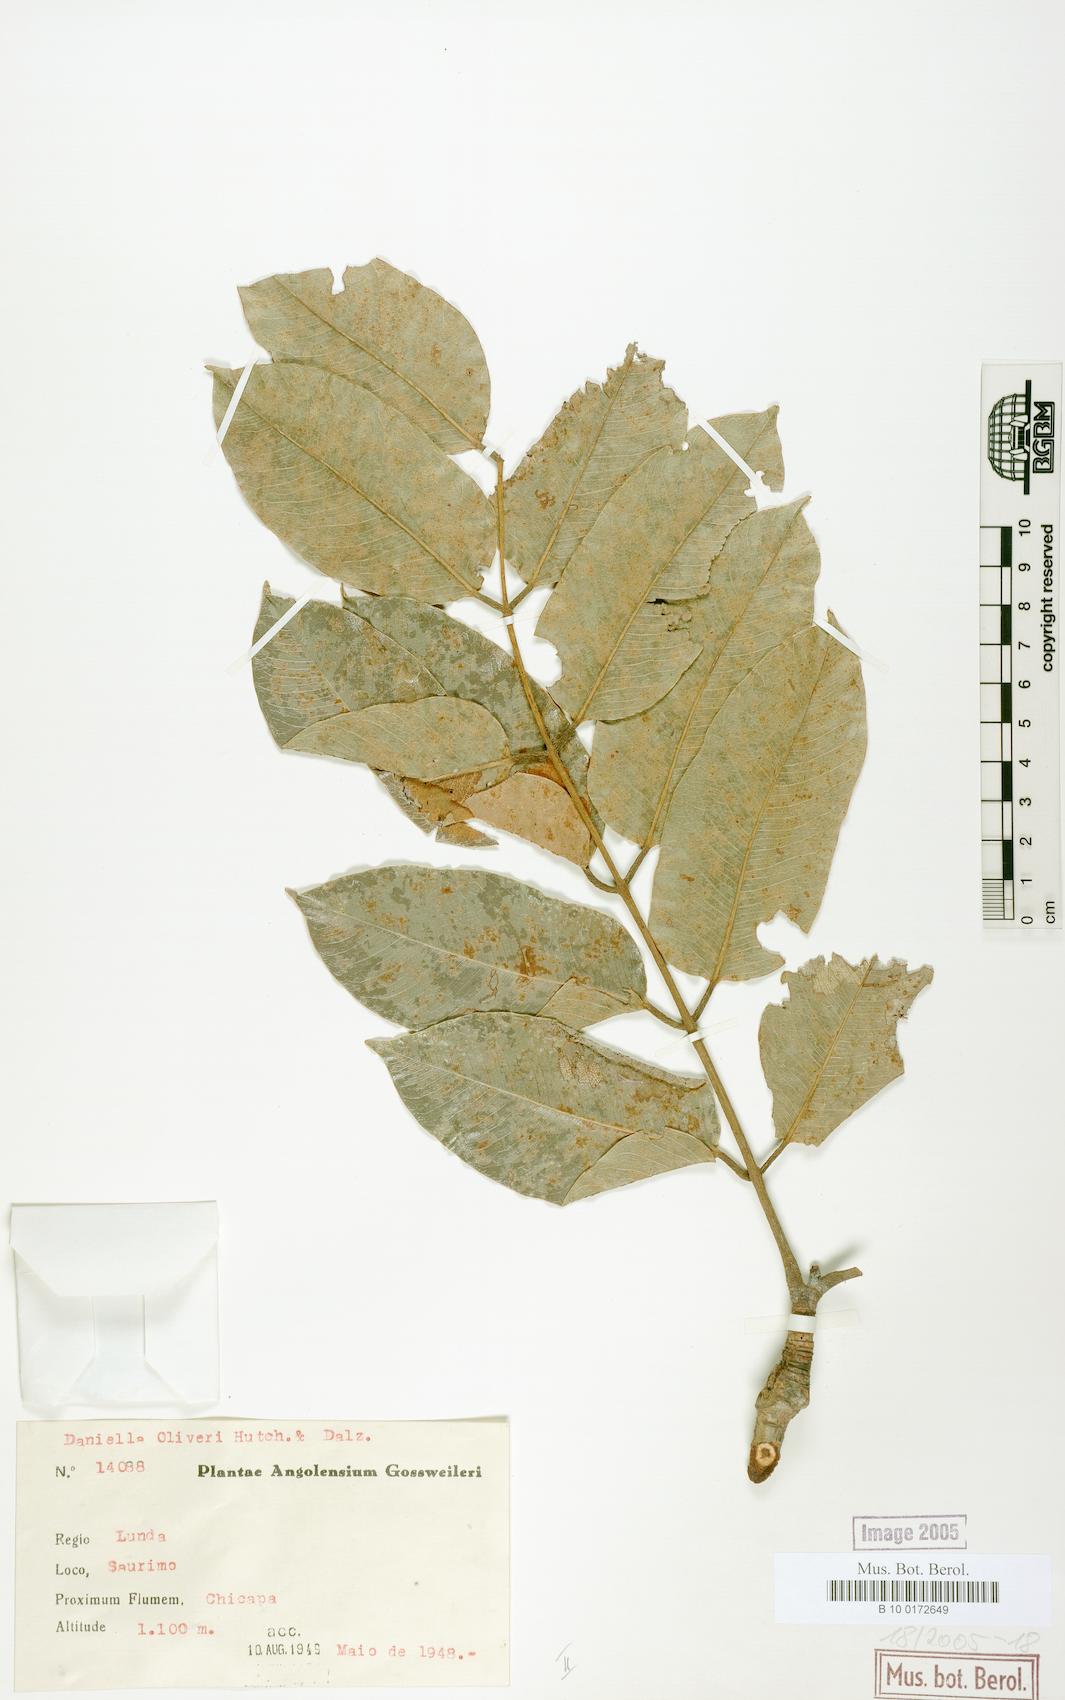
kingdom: Plantae
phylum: Tracheophyta
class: Magnoliopsida
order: Fabales
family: Fabaceae
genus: Daniellia
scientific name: Daniellia alsteeniana
